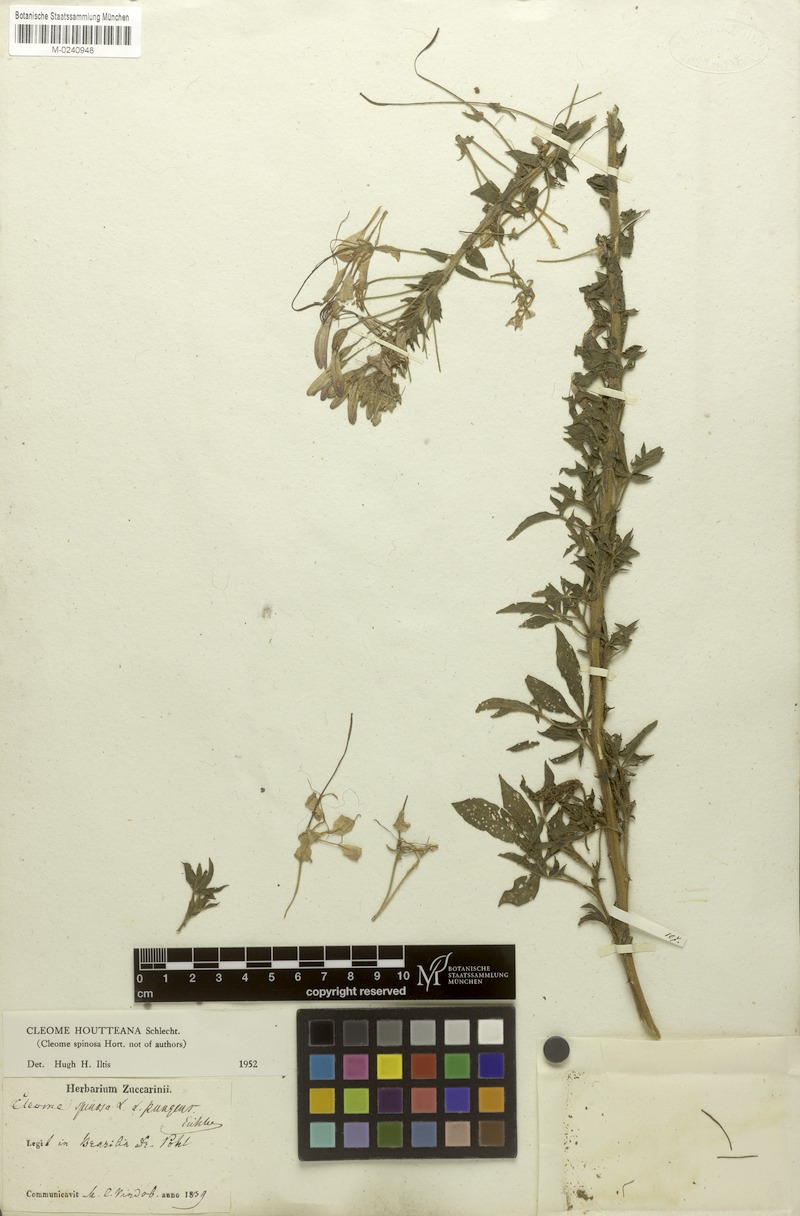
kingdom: Plantae
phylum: Tracheophyta
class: Magnoliopsida
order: Brassicales
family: Cleomaceae
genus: Tarenaya
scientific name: Tarenaya houtteana
